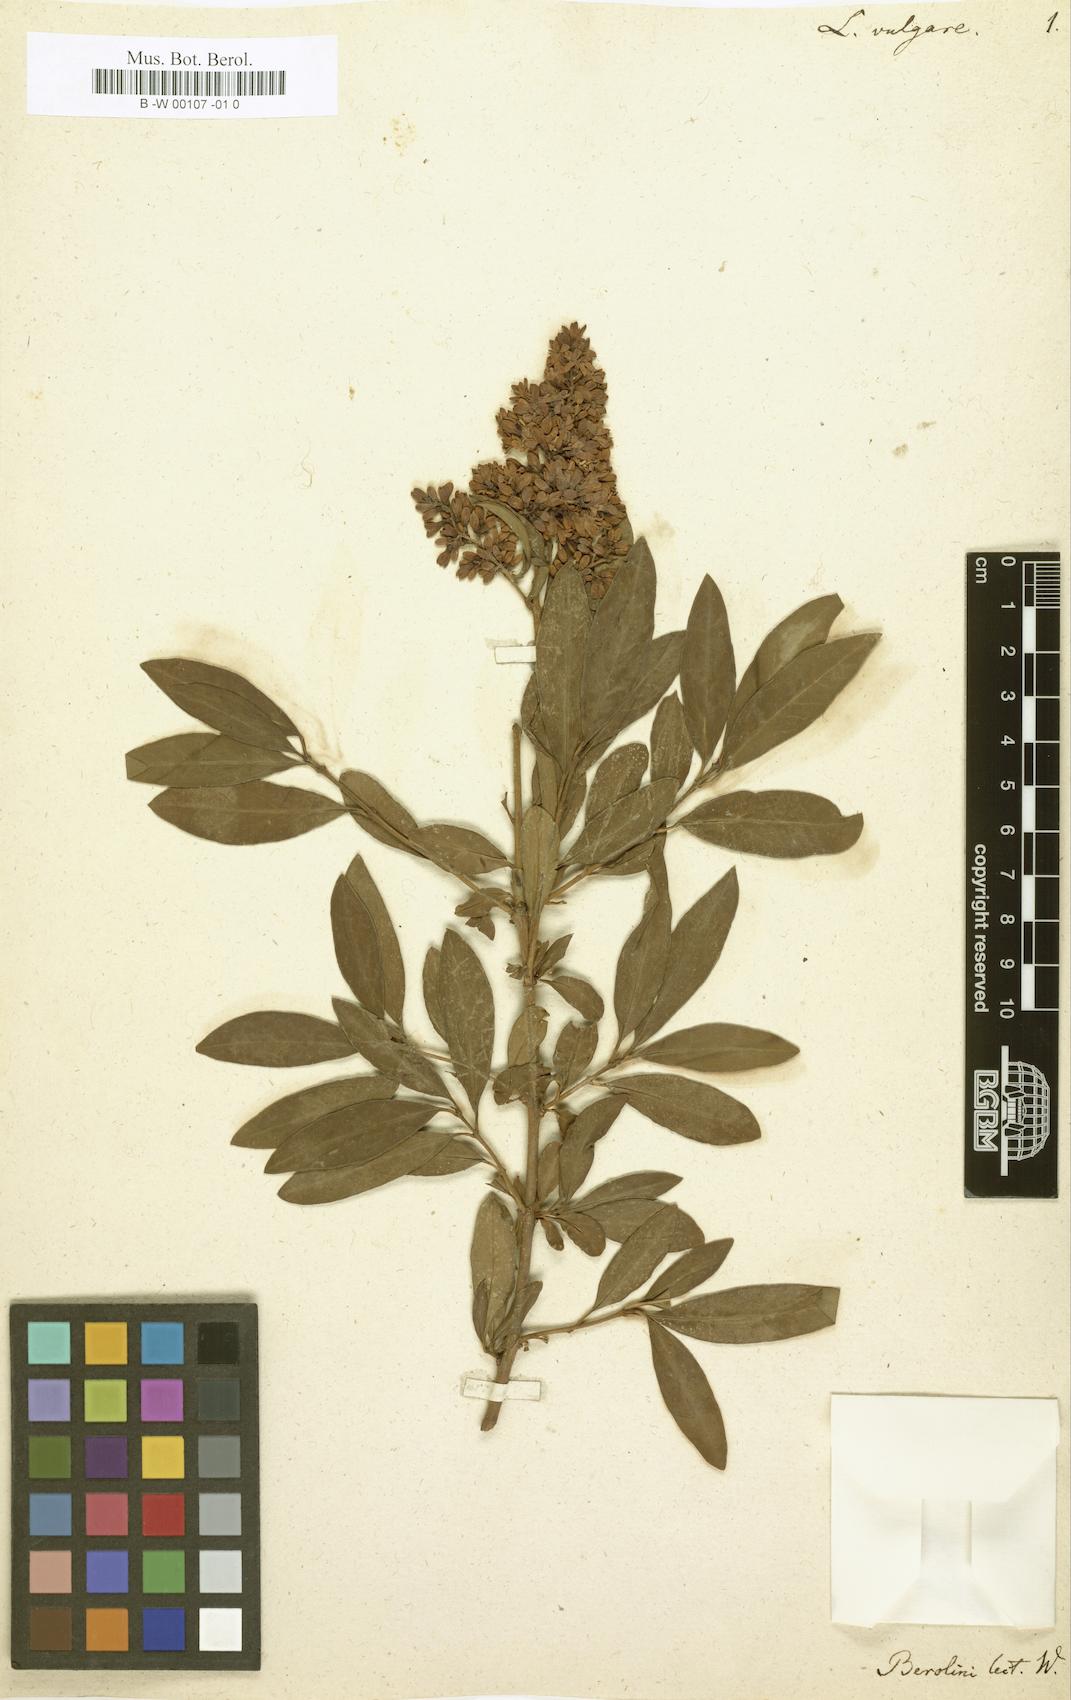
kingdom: Plantae
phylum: Tracheophyta
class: Magnoliopsida
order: Lamiales
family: Oleaceae
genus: Ligustrum
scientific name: Ligustrum vulgare
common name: Wild privet
